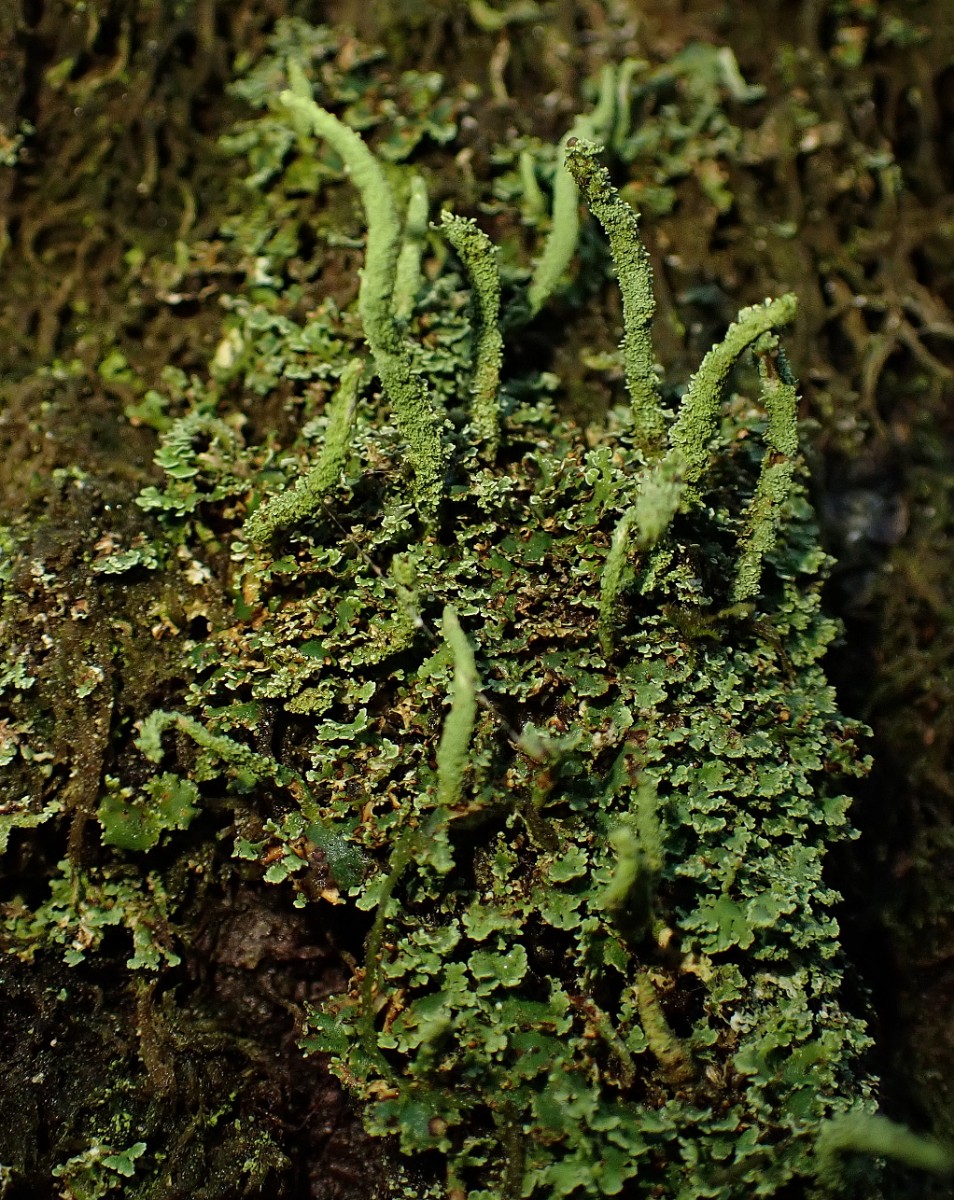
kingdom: Fungi
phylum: Ascomycota
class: Lecanoromycetes
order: Lecanorales
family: Cladoniaceae
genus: Cladonia
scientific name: Cladonia coniocraea
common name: træfods-bægerlav
